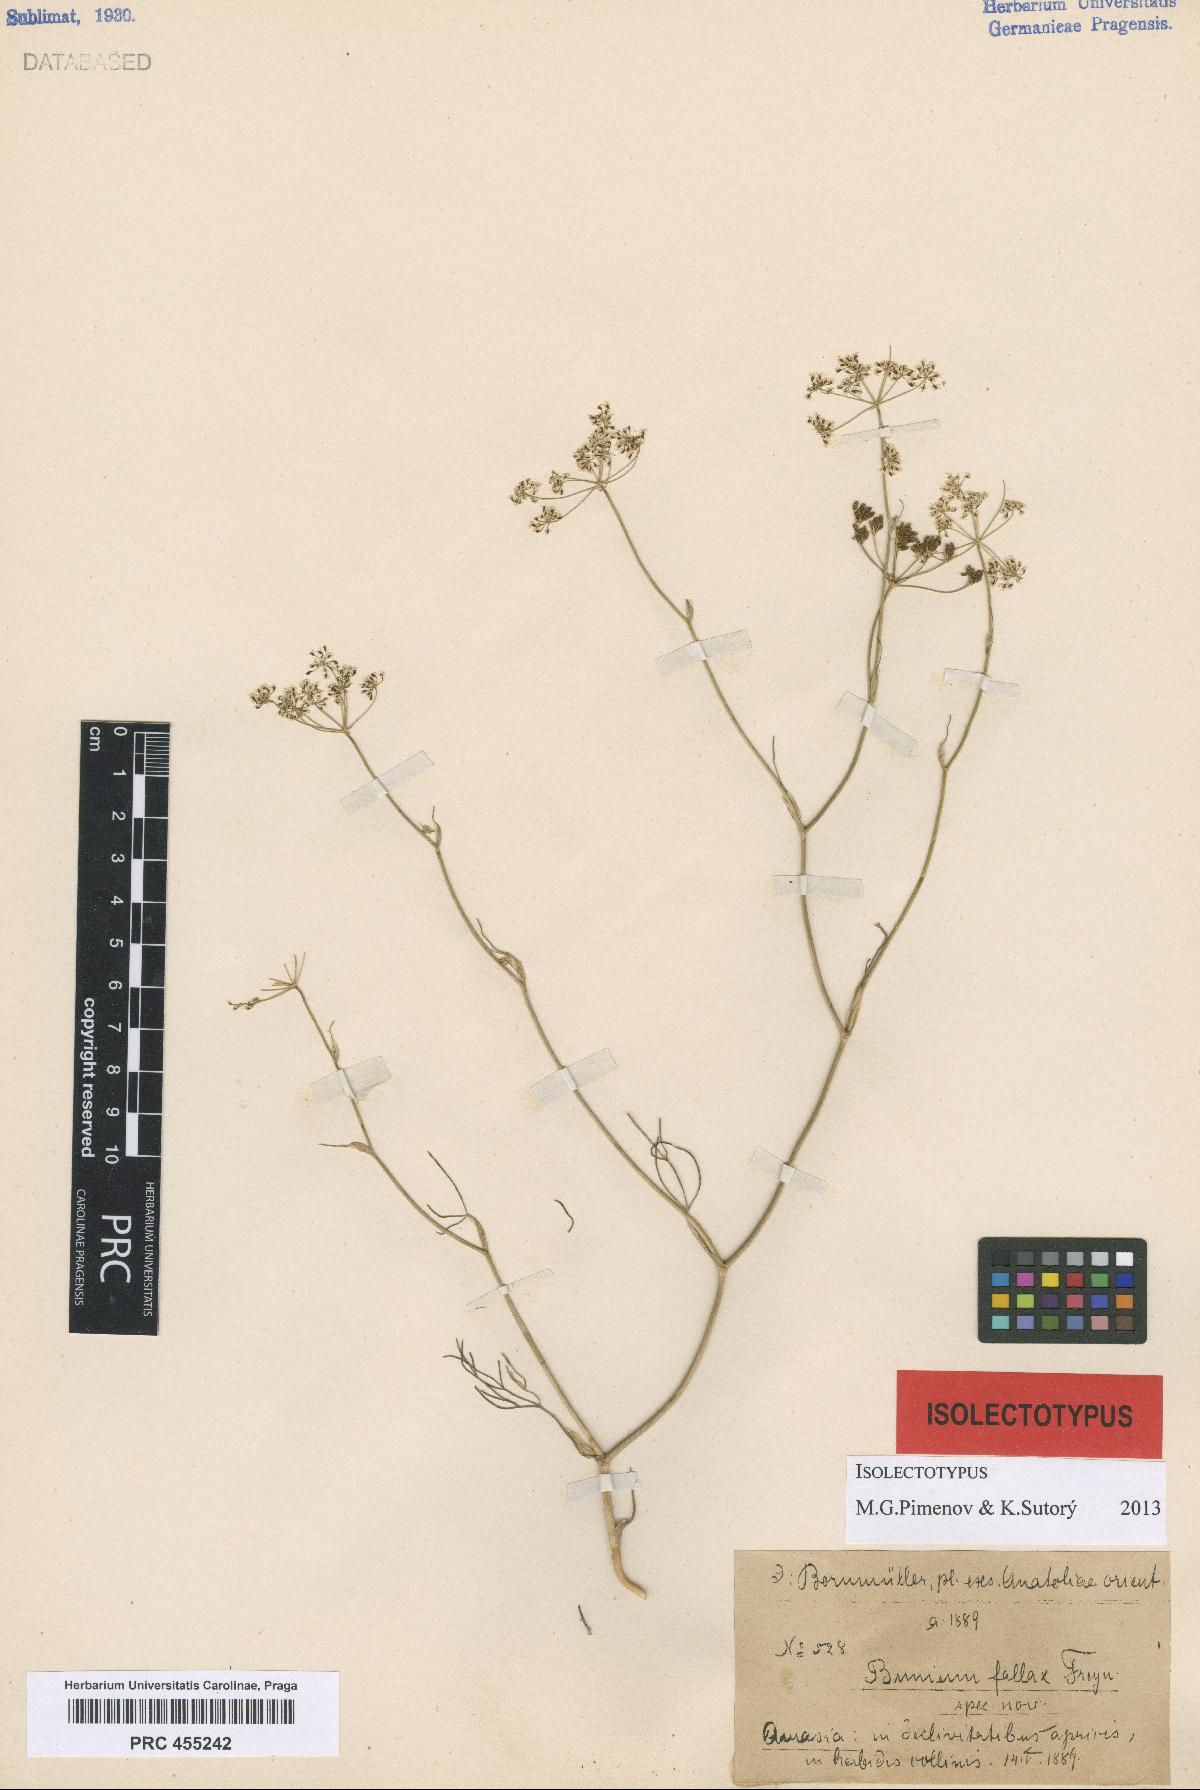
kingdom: Plantae
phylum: Tracheophyta
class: Magnoliopsida
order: Apiales
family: Apiaceae
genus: Bunium
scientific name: Bunium bourgaei
